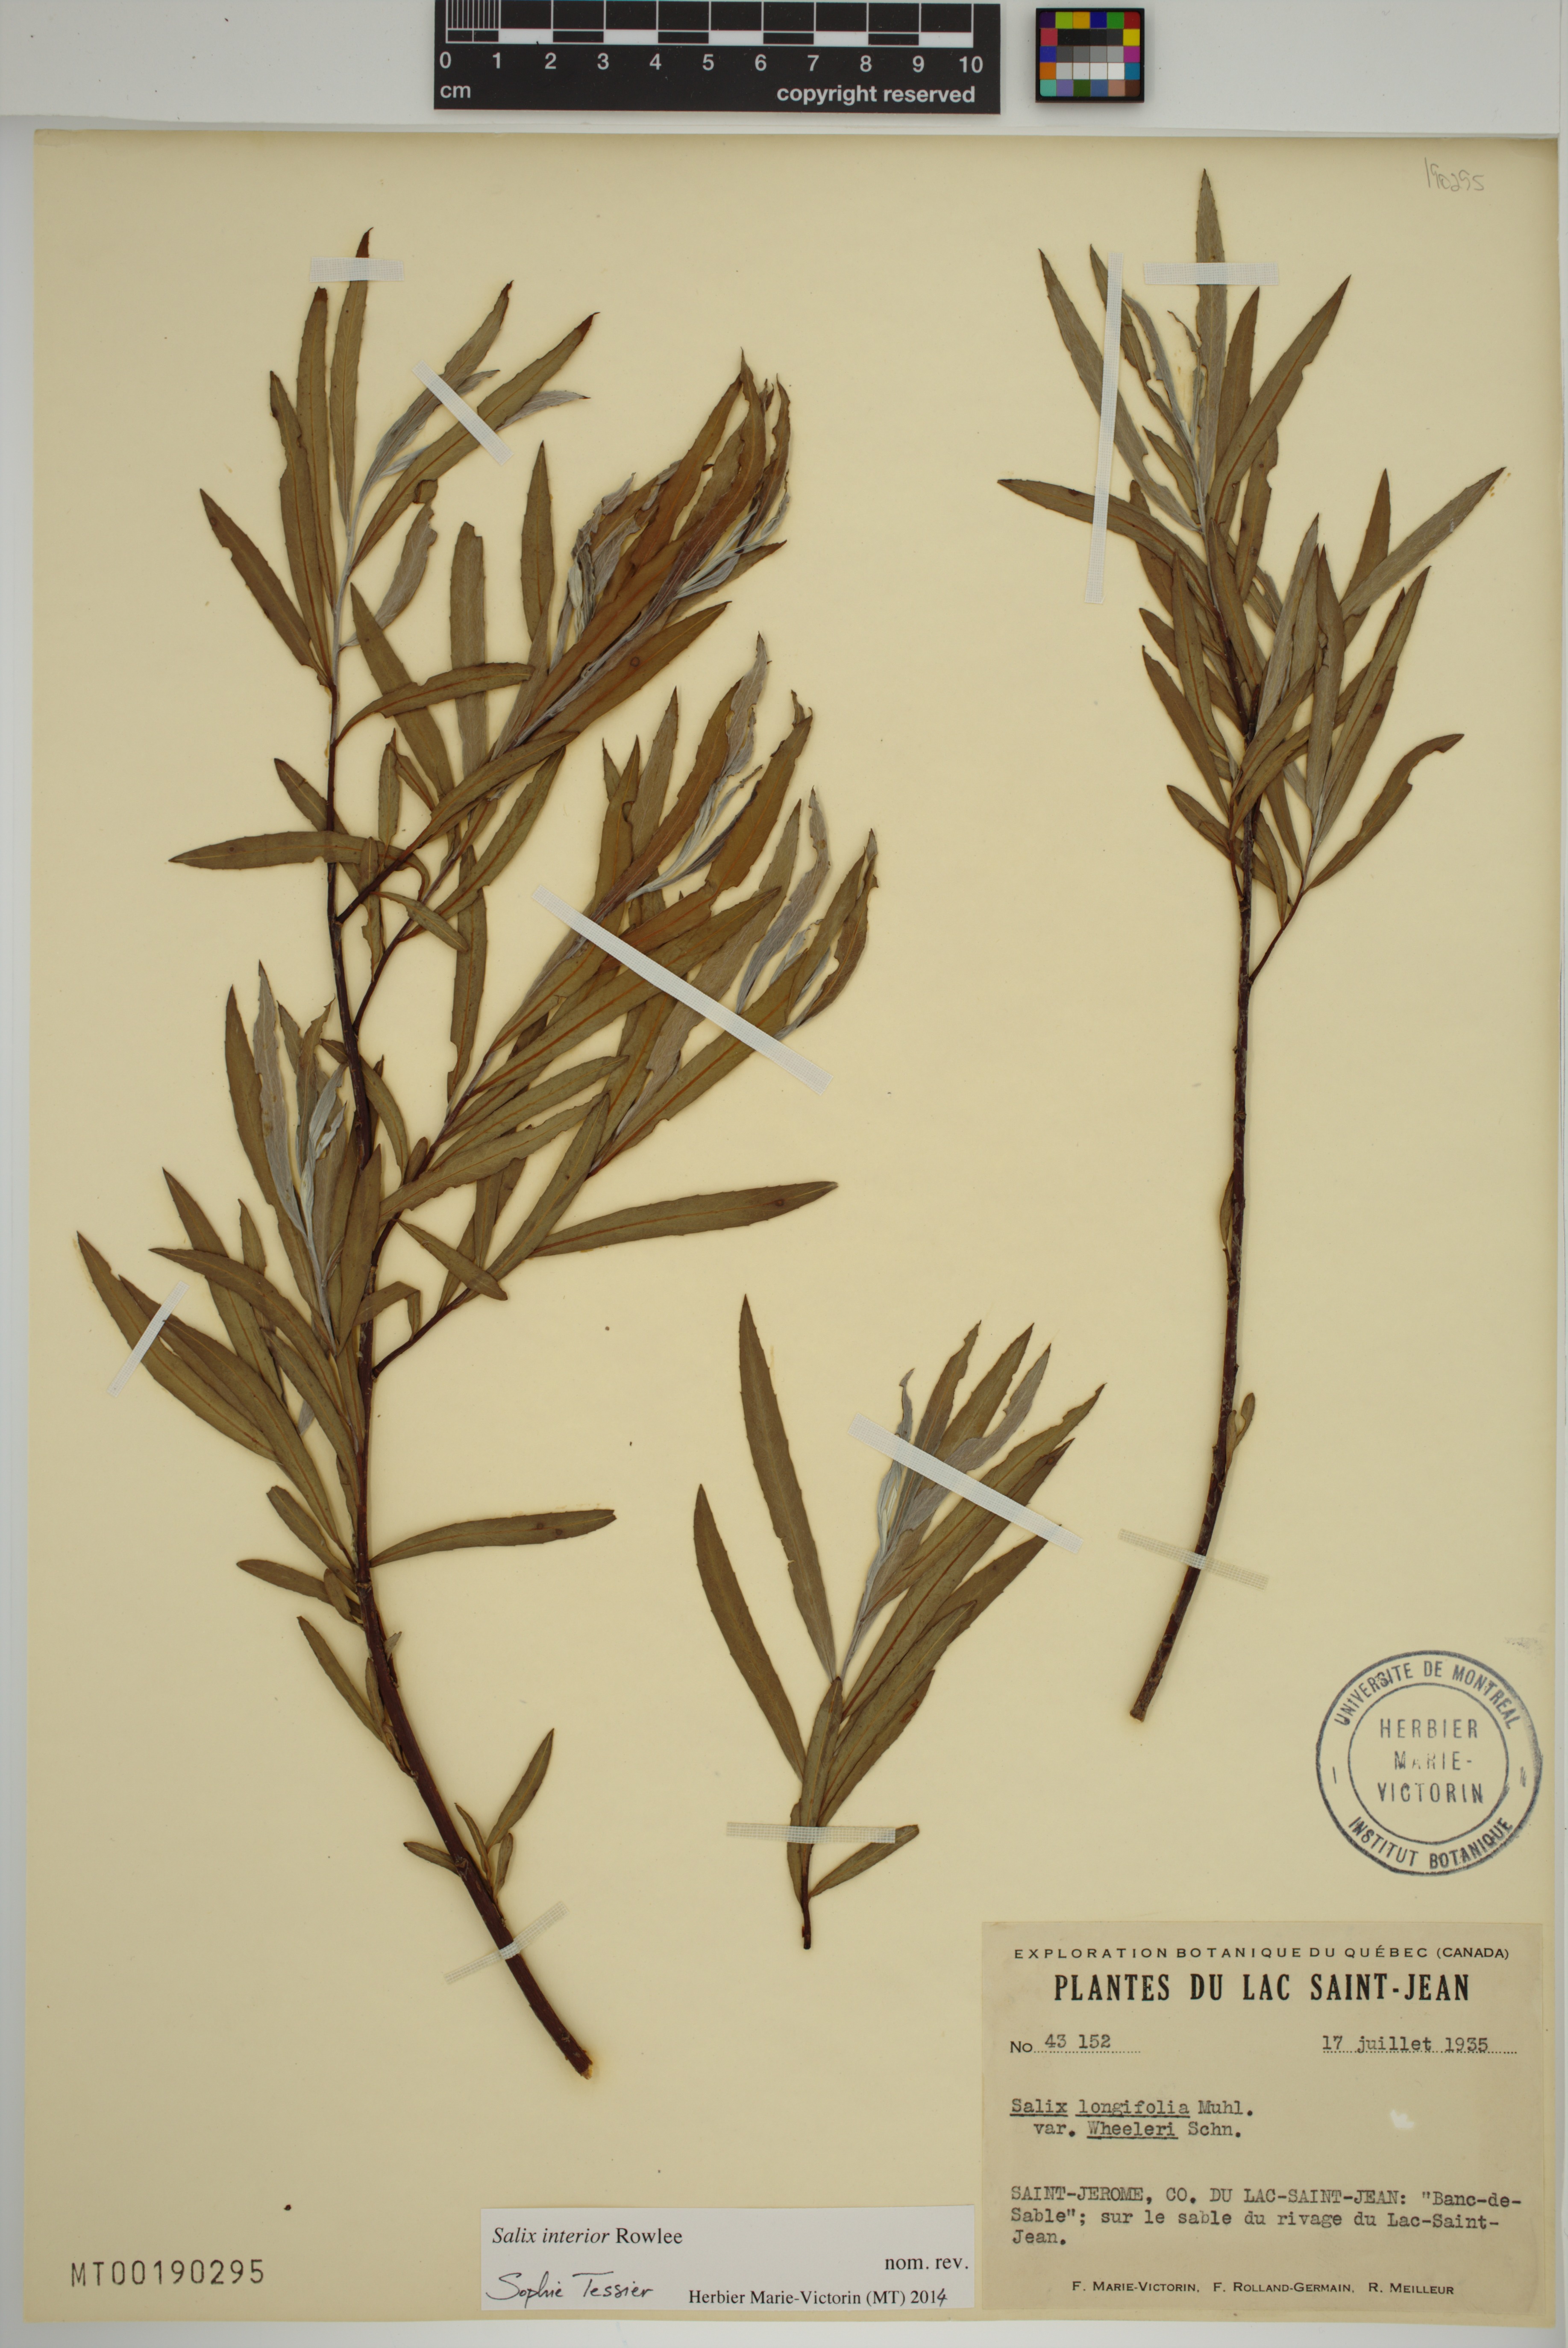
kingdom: Plantae
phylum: Tracheophyta
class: Magnoliopsida
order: Malpighiales
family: Salicaceae
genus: Salix
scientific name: Salix interior
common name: Sandbar willow
